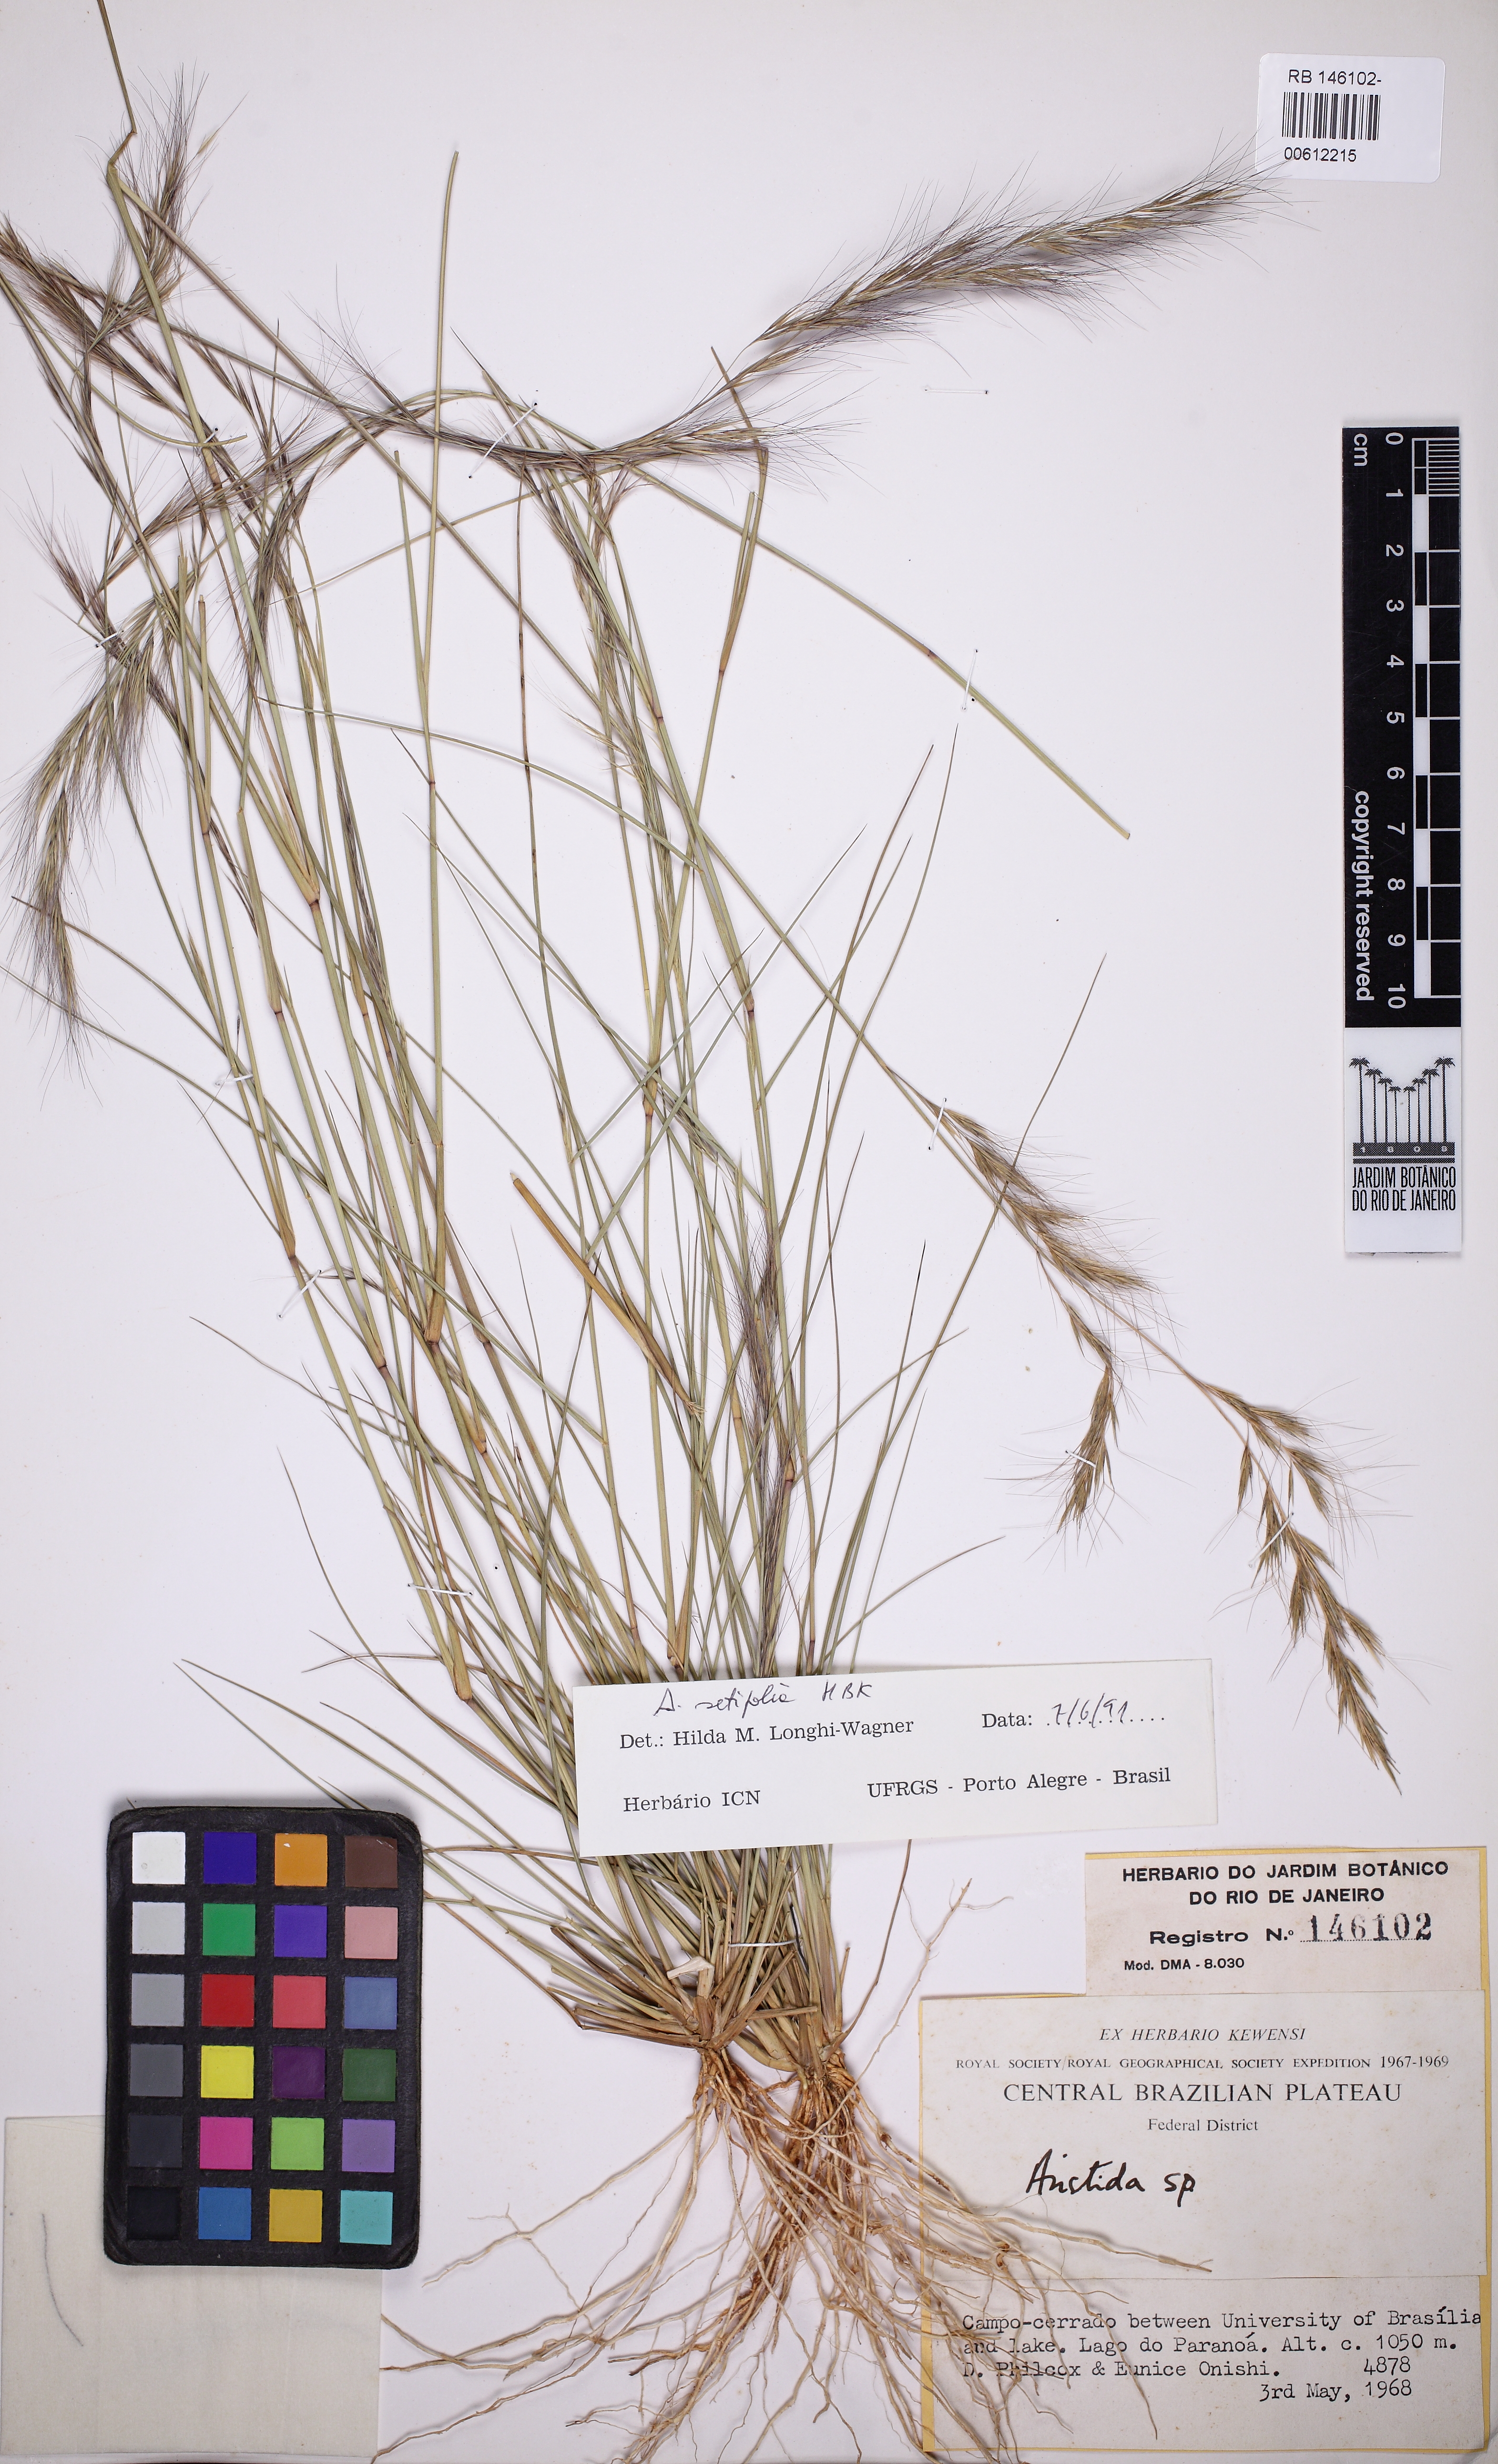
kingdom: Plantae
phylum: Tracheophyta
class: Liliopsida
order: Poales
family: Poaceae
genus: Aristida
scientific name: Aristida setifolia
